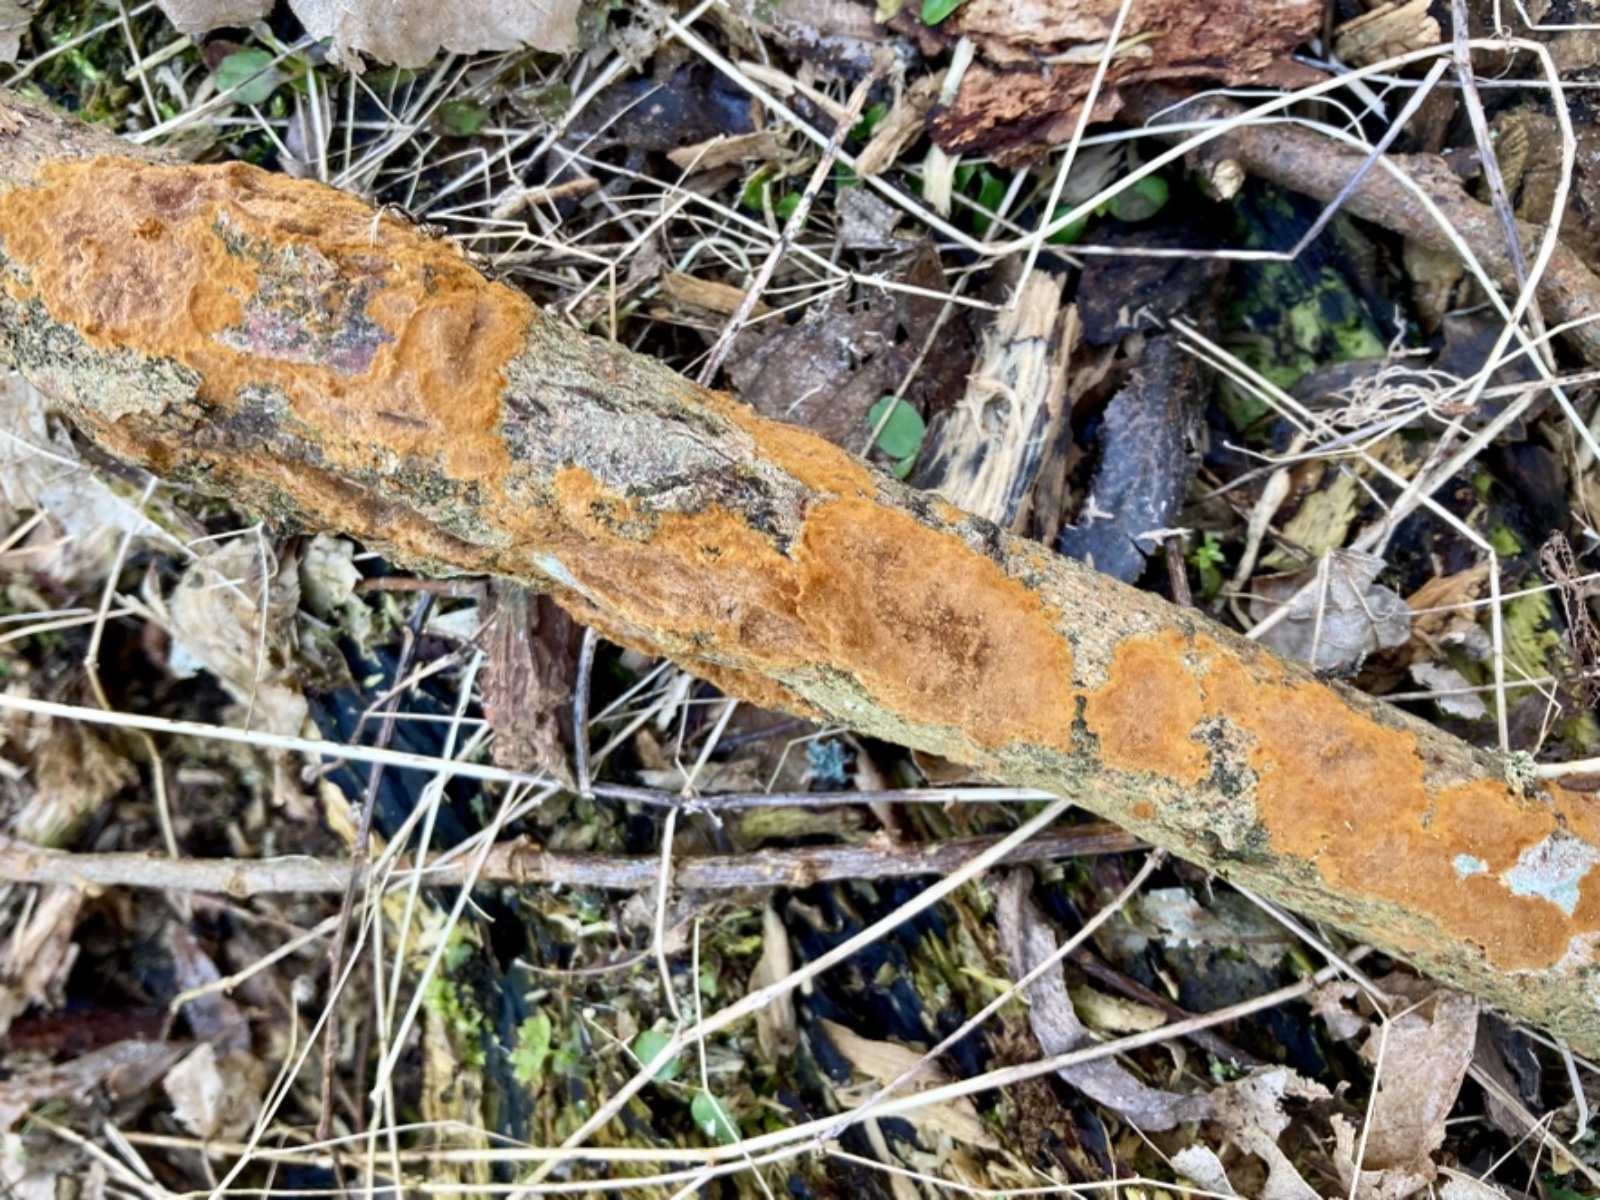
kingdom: Fungi
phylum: Basidiomycota
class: Agaricomycetes
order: Hymenochaetales
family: Hymenochaetaceae
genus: Fuscoporia
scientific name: Fuscoporia ferrea
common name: skorpe-ildporesvamp
